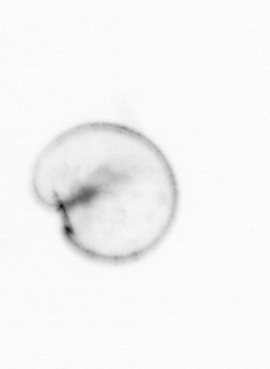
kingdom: Chromista
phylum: Myzozoa
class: Dinophyceae
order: Noctilucales
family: Noctilucaceae
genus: Noctiluca
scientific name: Noctiluca scintillans
